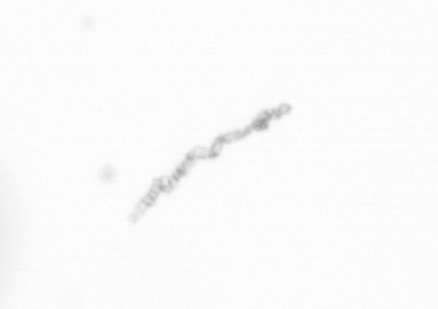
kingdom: Chromista
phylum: Ochrophyta
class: Bacillariophyceae
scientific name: Bacillariophyceae
